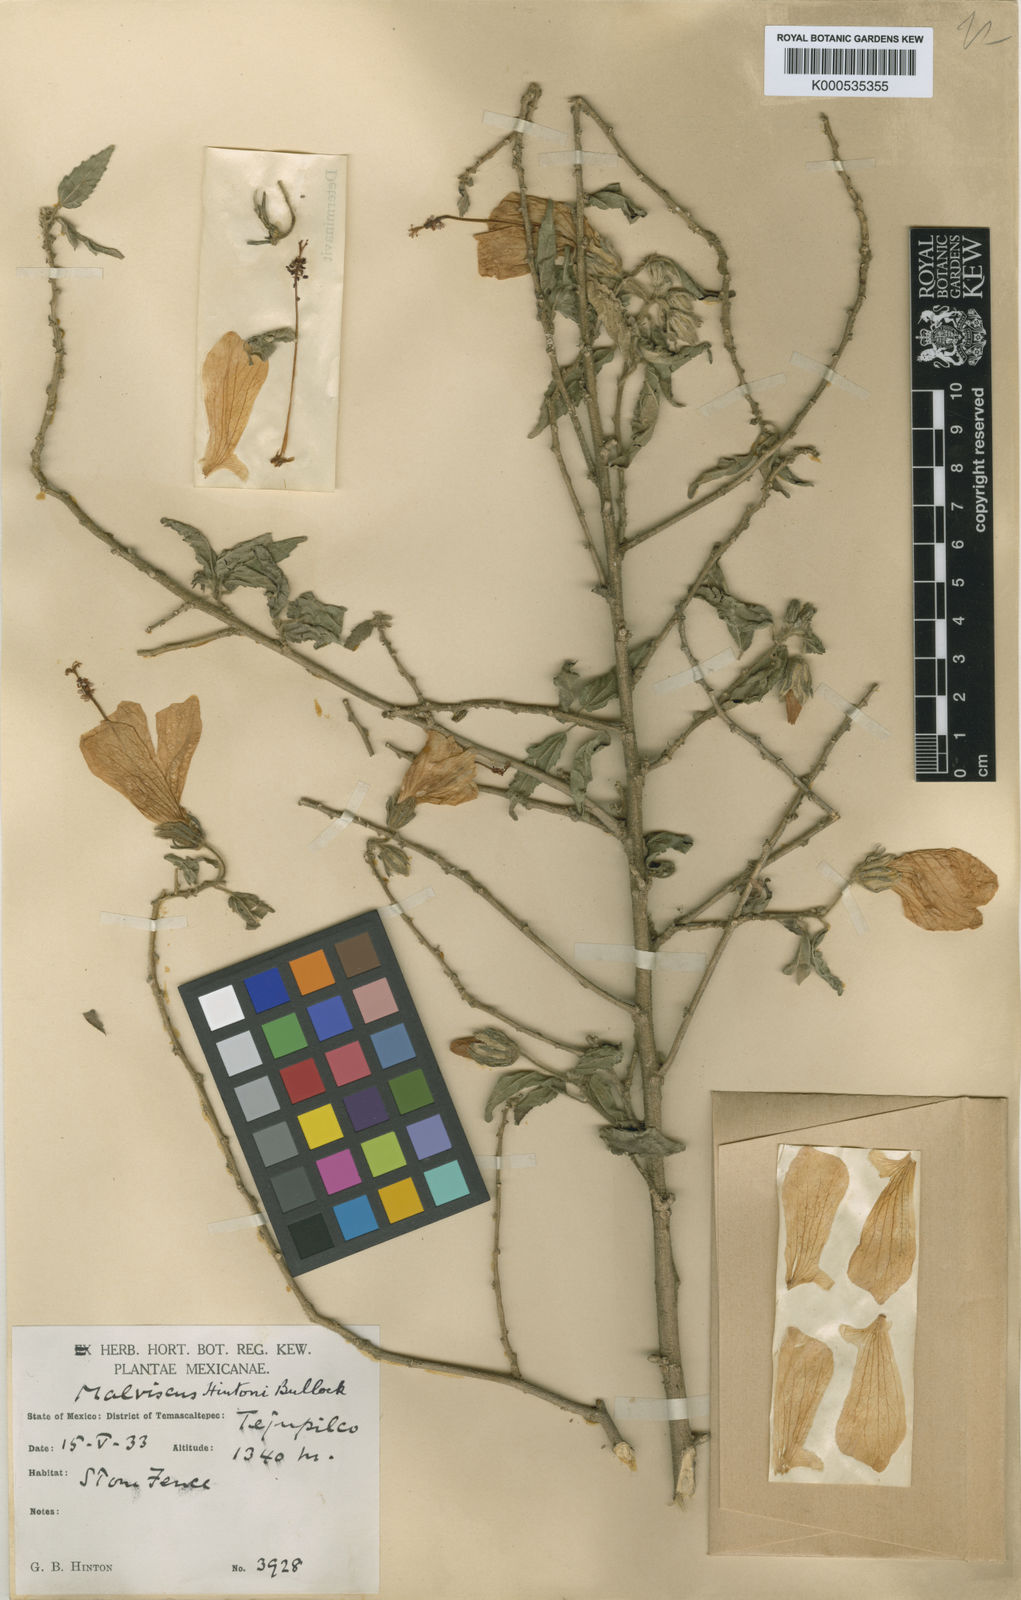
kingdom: Plantae
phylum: Tracheophyta
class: Magnoliopsida
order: Malvales
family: Malvaceae
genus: Malvaviscus
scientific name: Malvaviscus urticifolius
